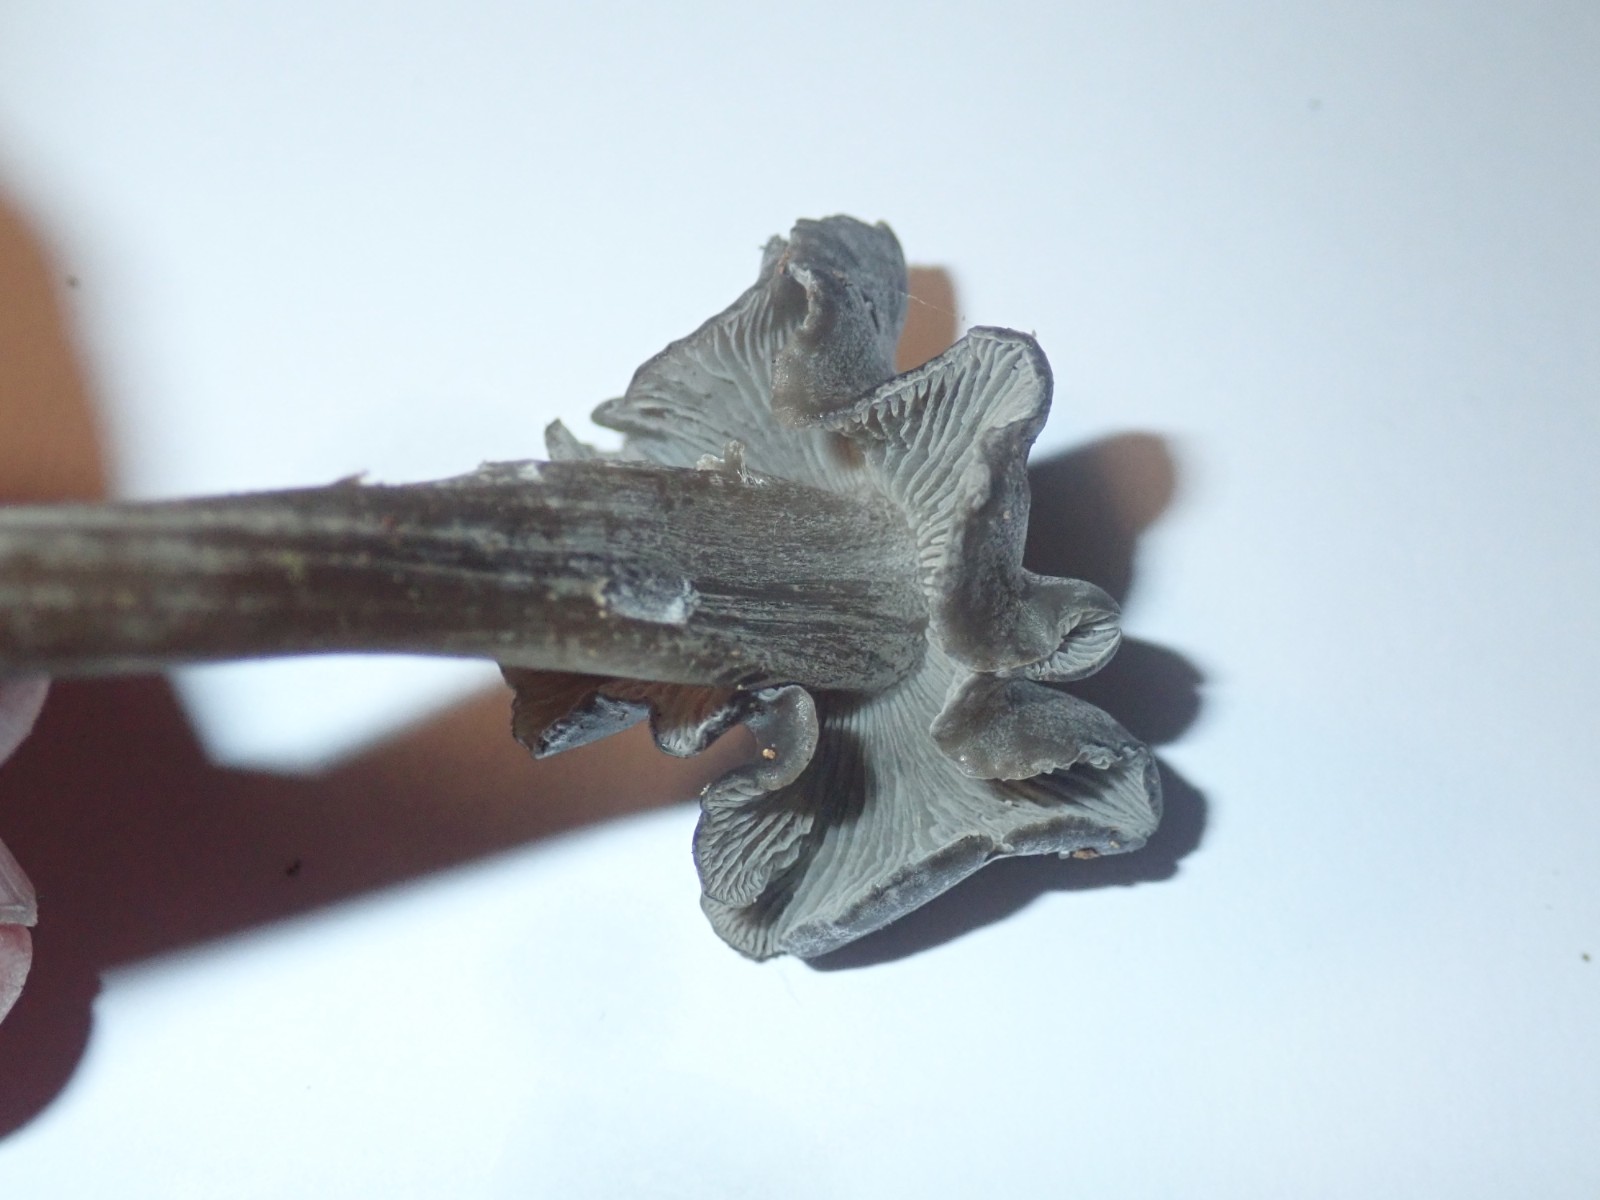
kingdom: Fungi
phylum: Basidiomycota
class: Agaricomycetes
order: Agaricales
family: Lyophyllaceae
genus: Tephrocybe
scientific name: Tephrocybe rancida
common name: mel-gråblad
